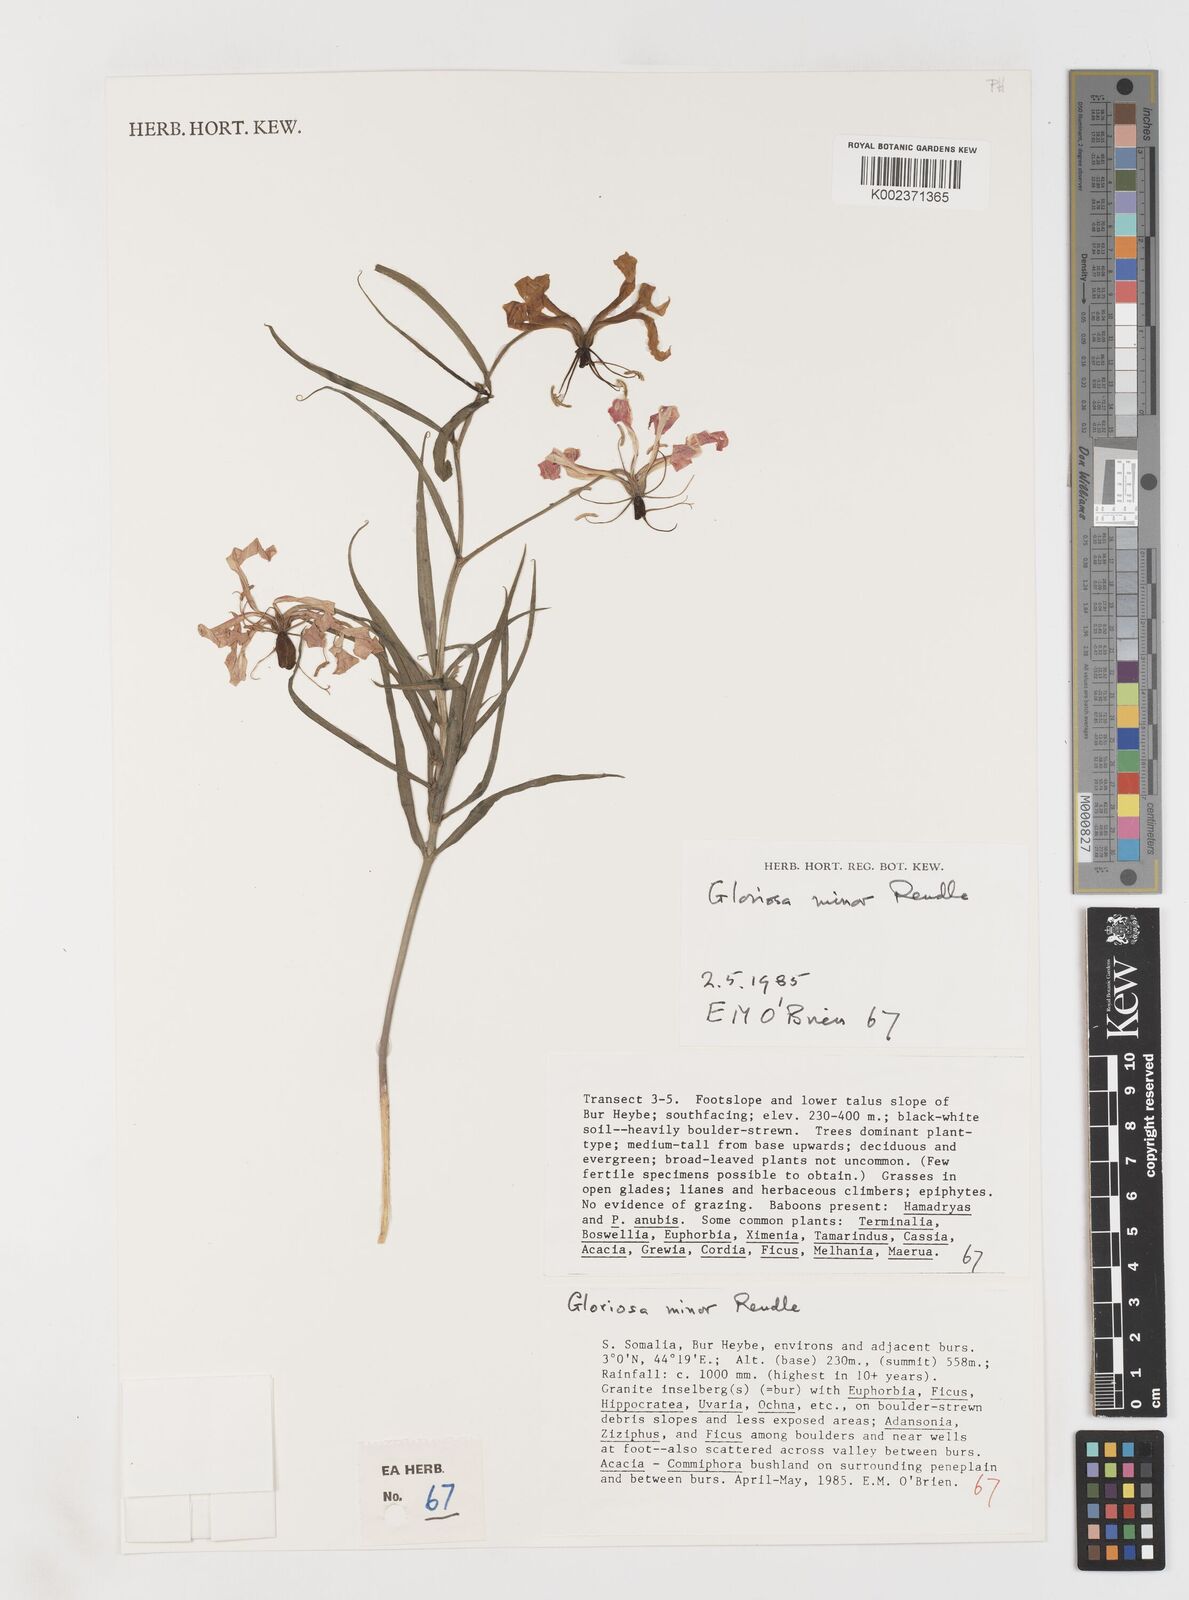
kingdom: Plantae
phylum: Tracheophyta
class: Liliopsida
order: Liliales
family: Colchicaceae
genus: Gloriosa
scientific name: Gloriosa baudii
